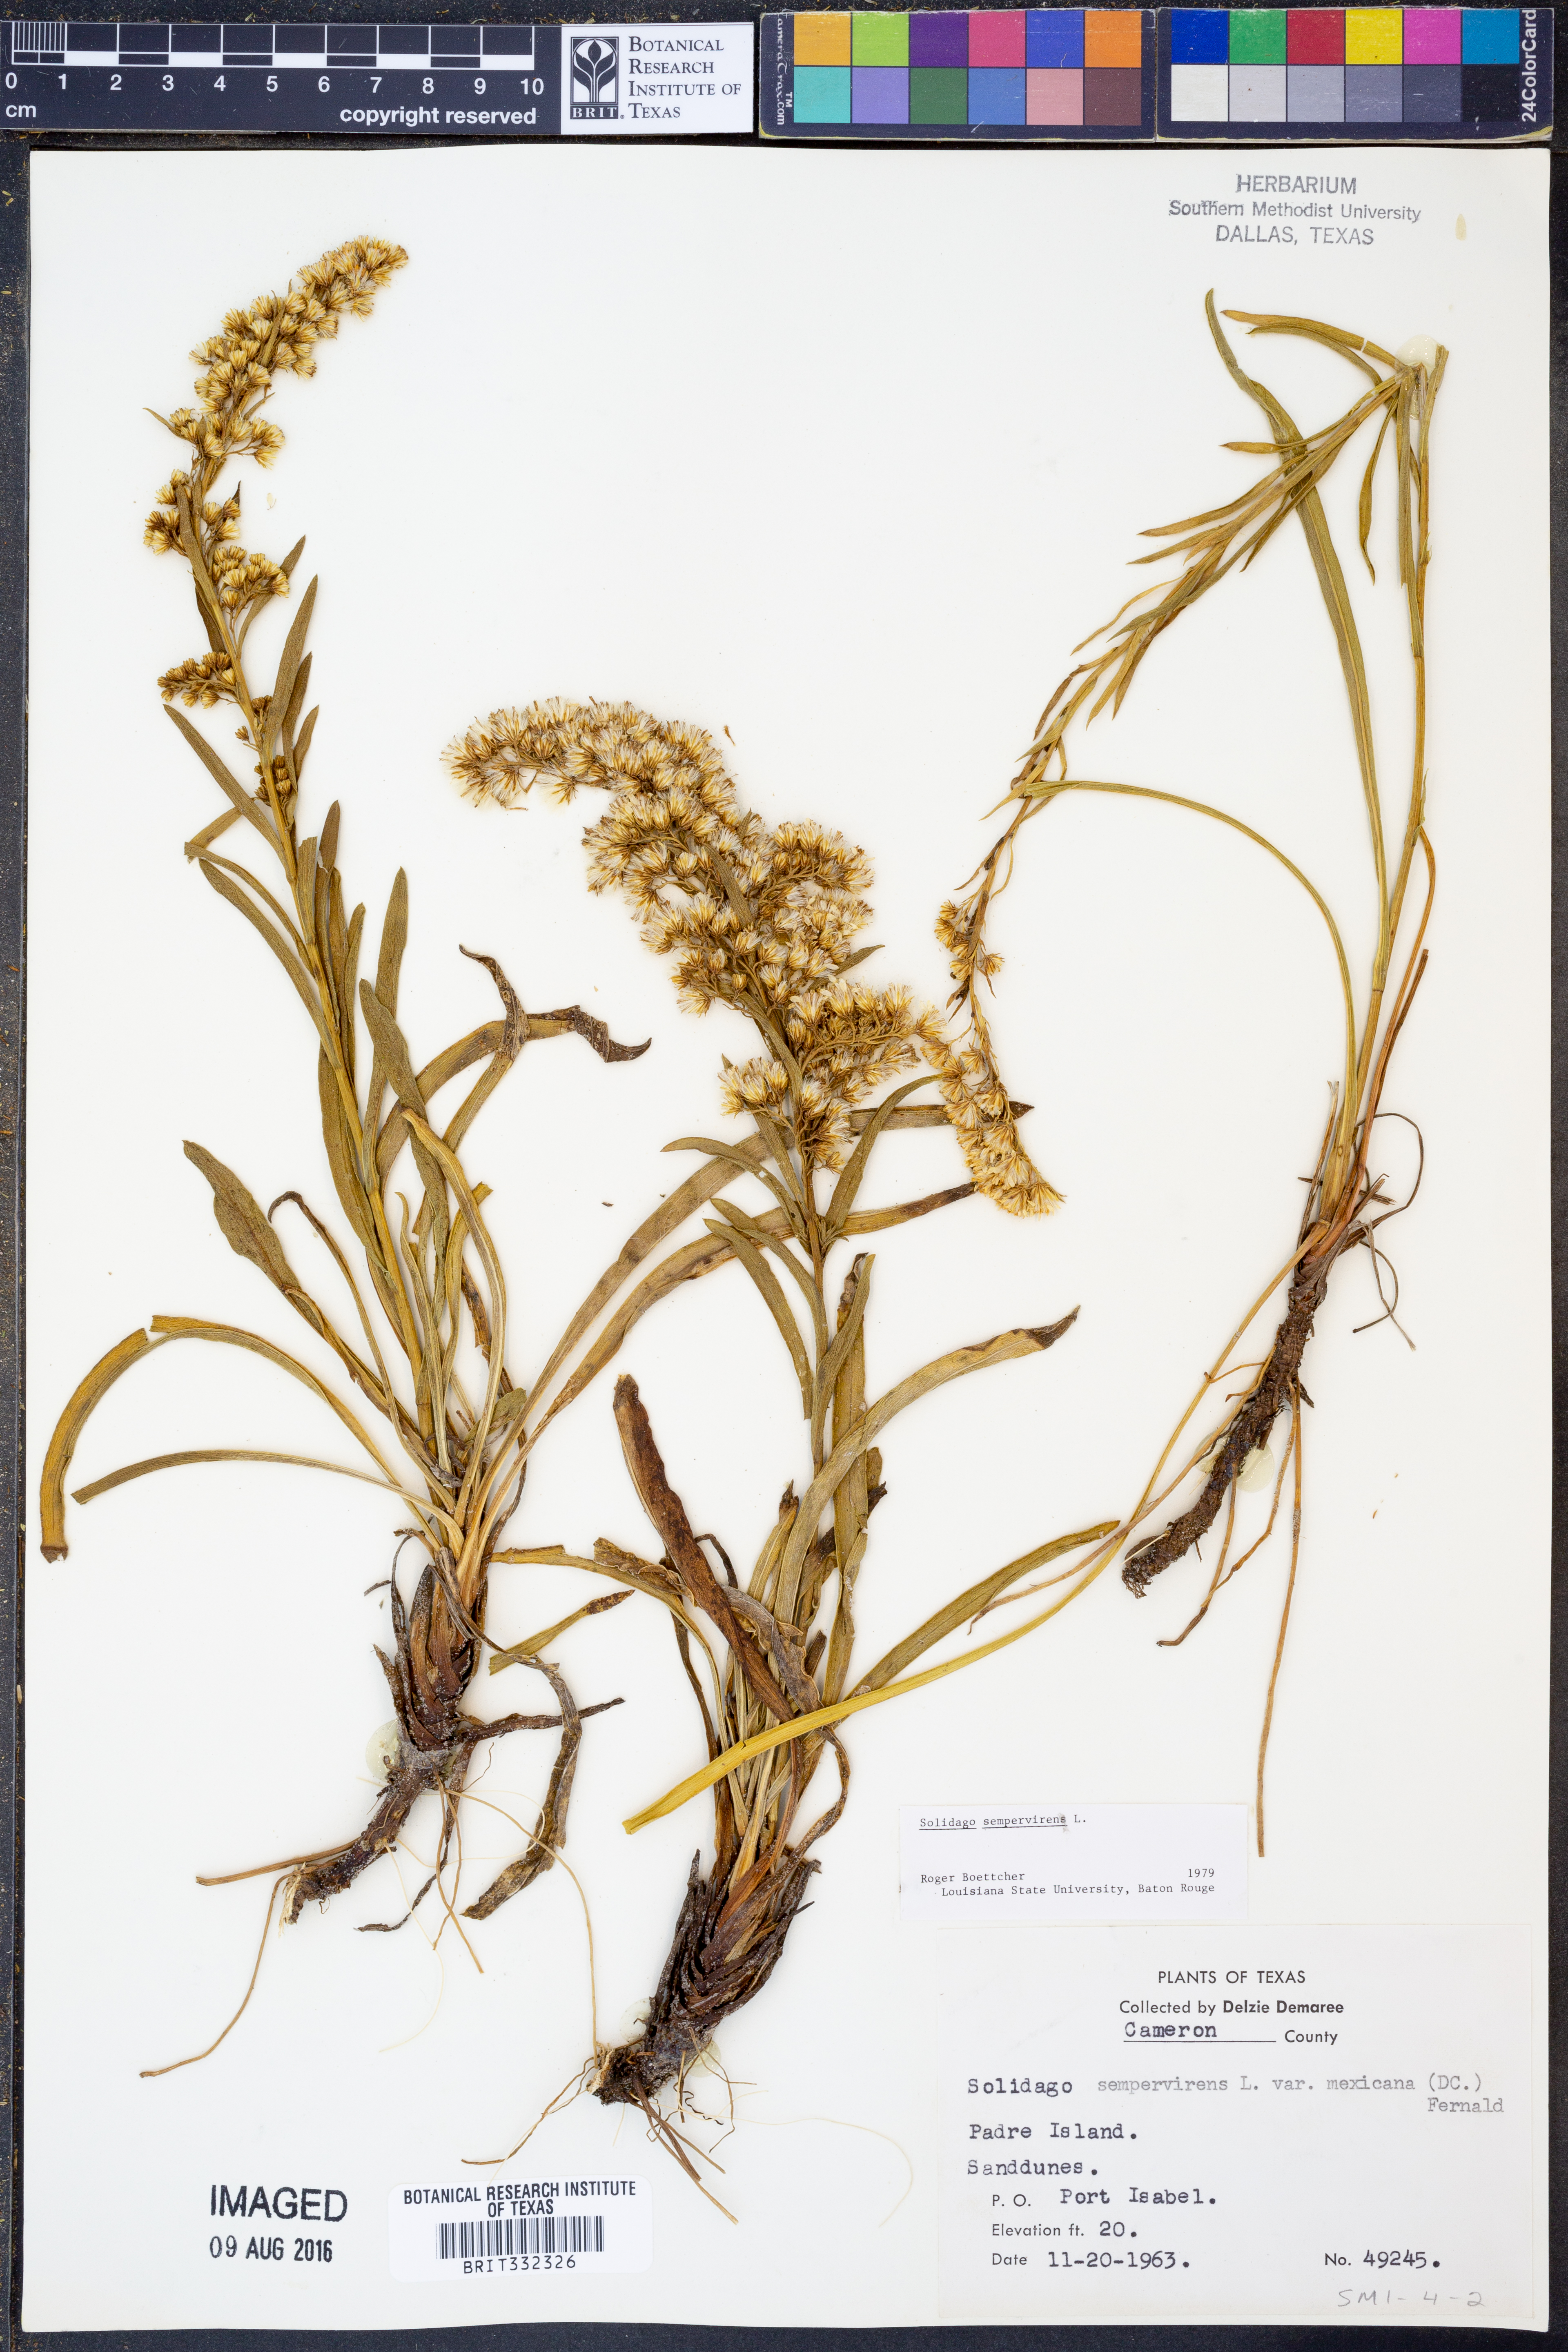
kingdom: Plantae
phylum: Tracheophyta
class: Magnoliopsida
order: Asterales
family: Asteraceae
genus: Solidago
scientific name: Solidago sempervirens
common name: Salt-marsh goldenrod
